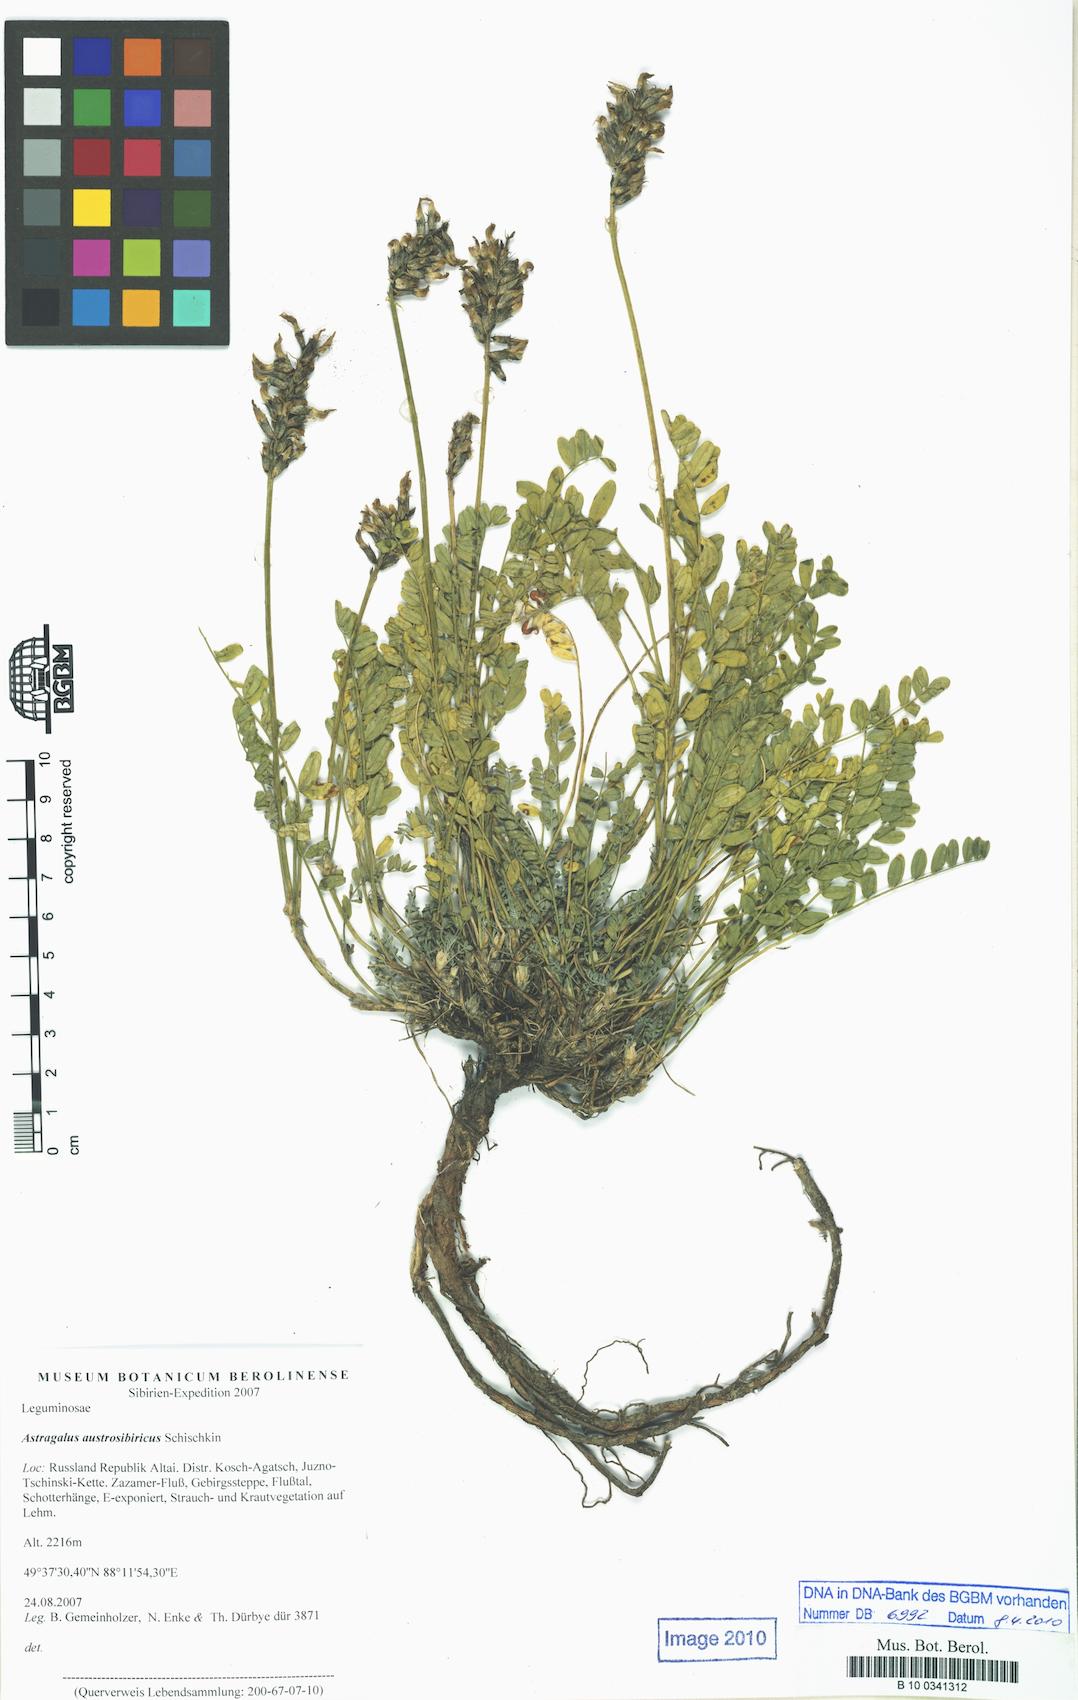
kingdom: Plantae
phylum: Tracheophyta
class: Magnoliopsida
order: Fabales
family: Fabaceae
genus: Astragalus
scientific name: Astragalus laxmannii
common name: Laxmann's milk-vetch
